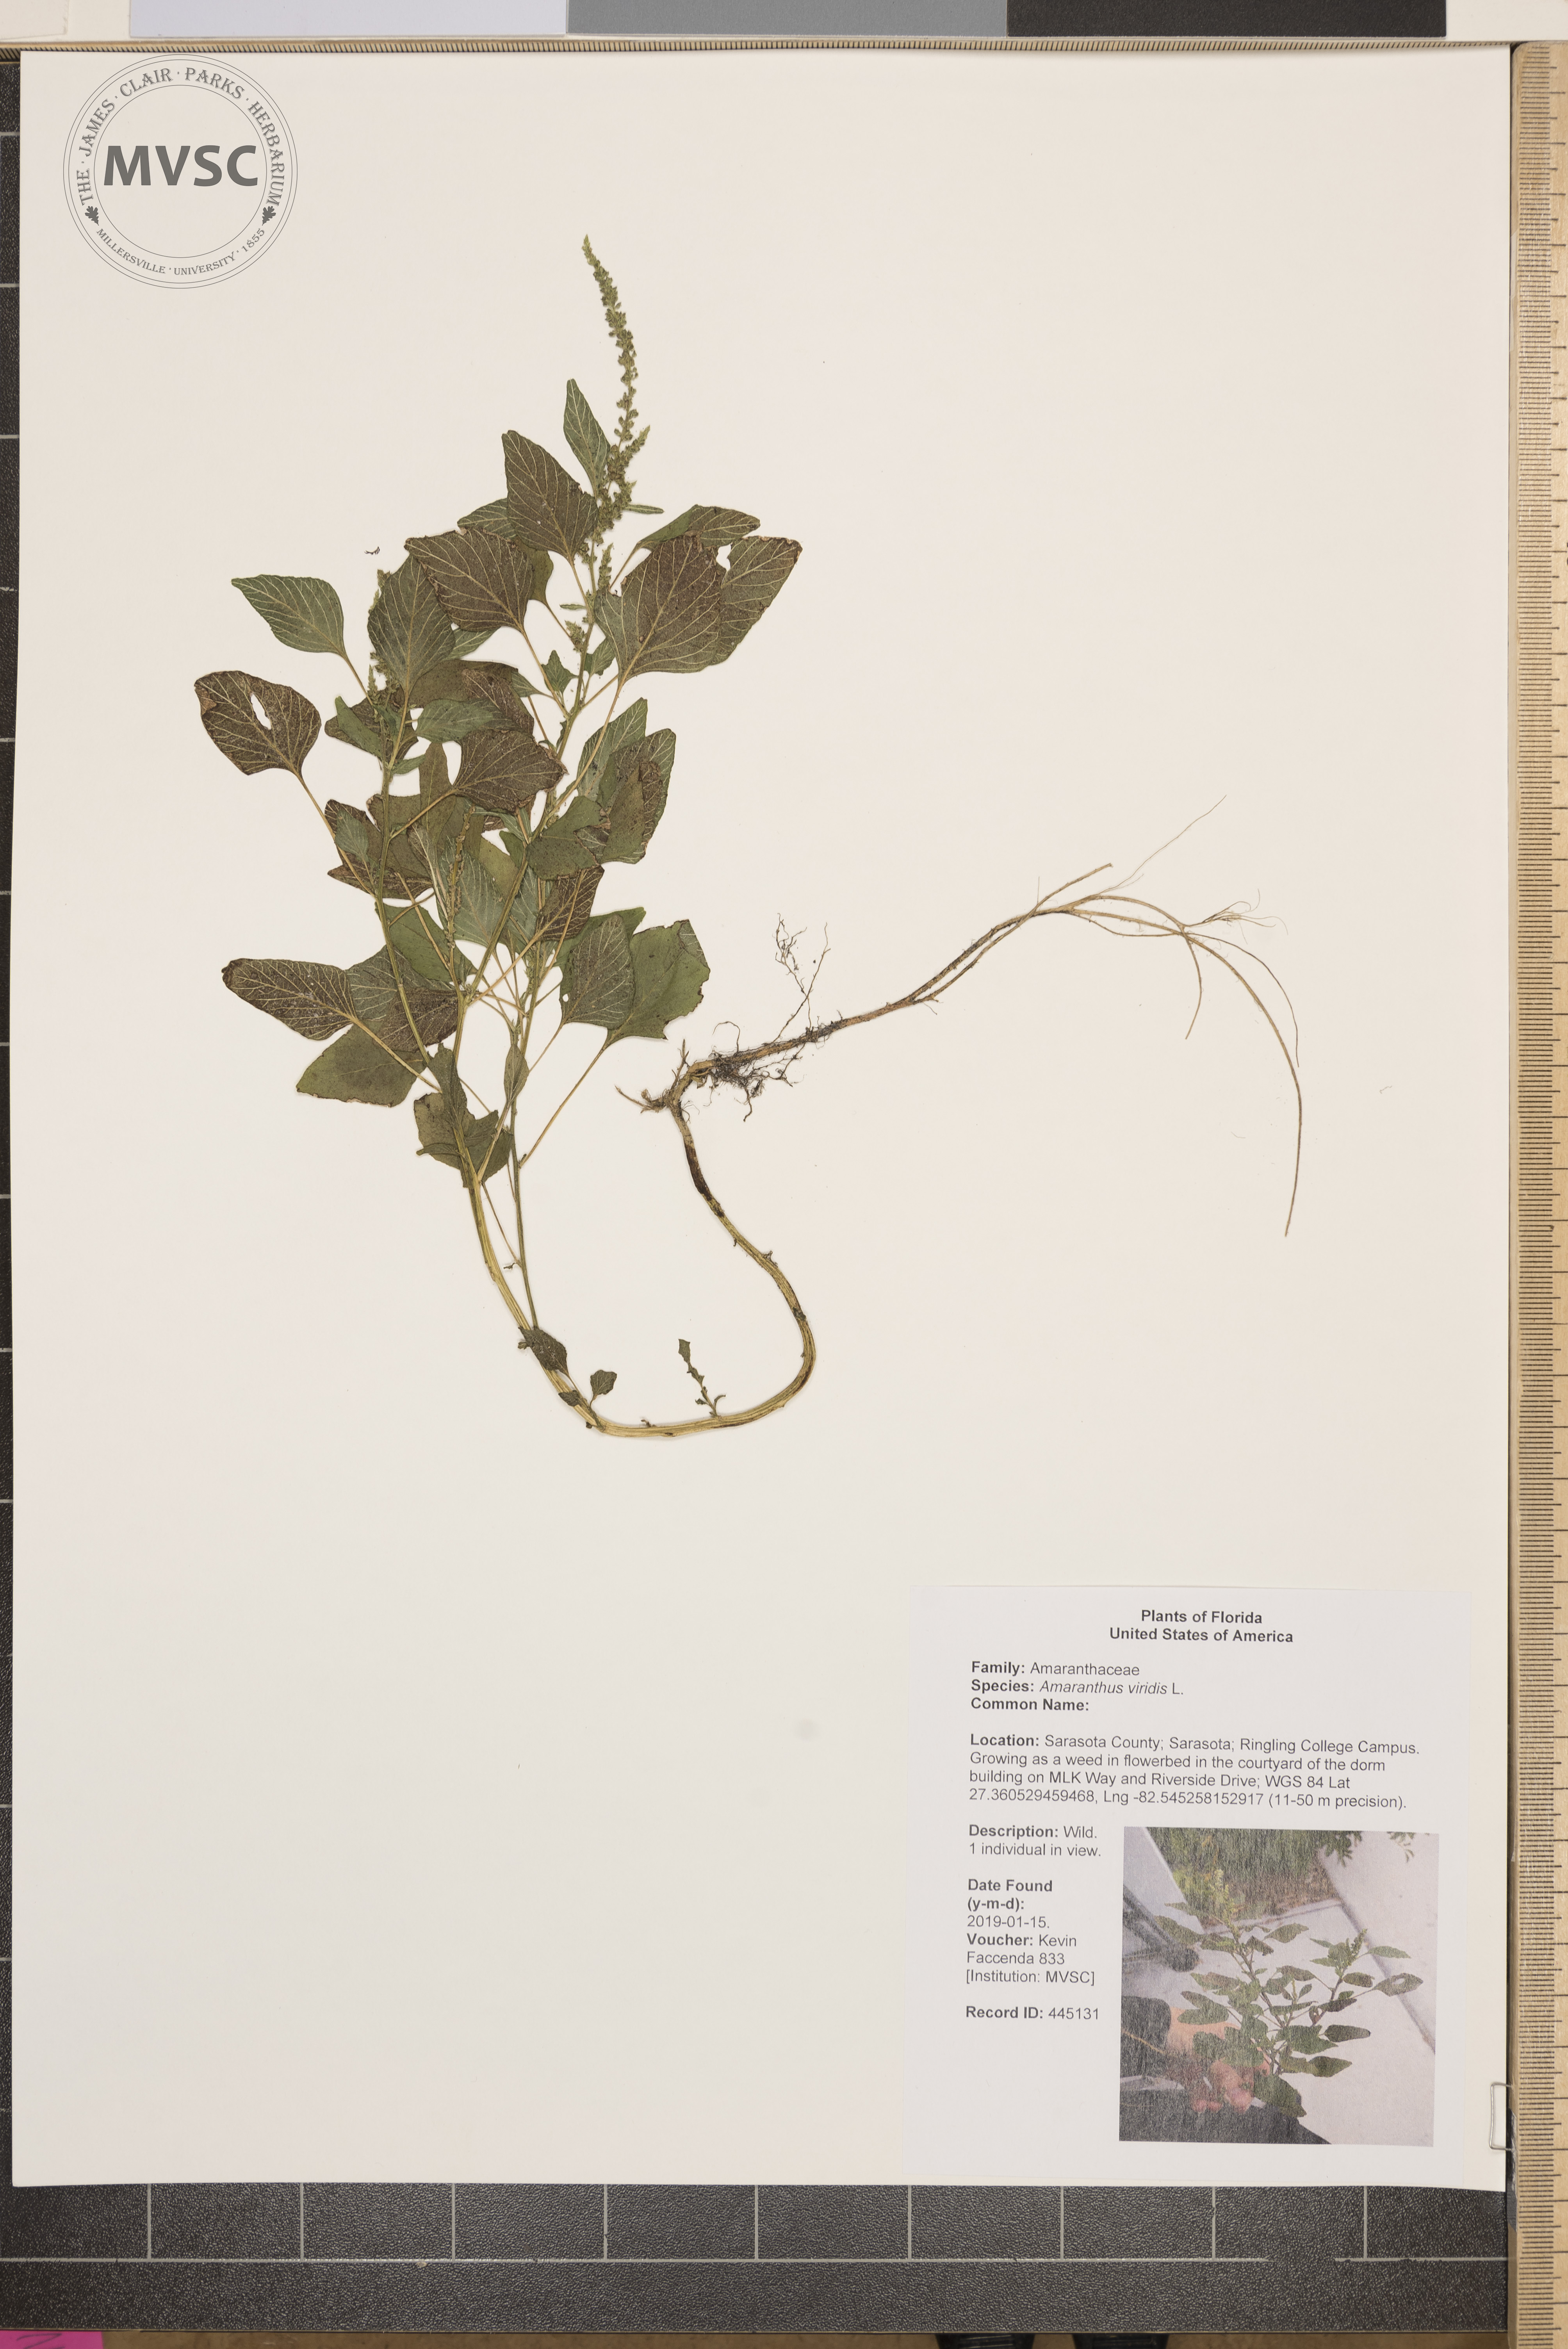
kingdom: Plantae
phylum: Tracheophyta
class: Magnoliopsida
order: Caryophyllales
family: Amaranthaceae
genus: Amaranthus
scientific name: Amaranthus viridis
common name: Slender amaranth
